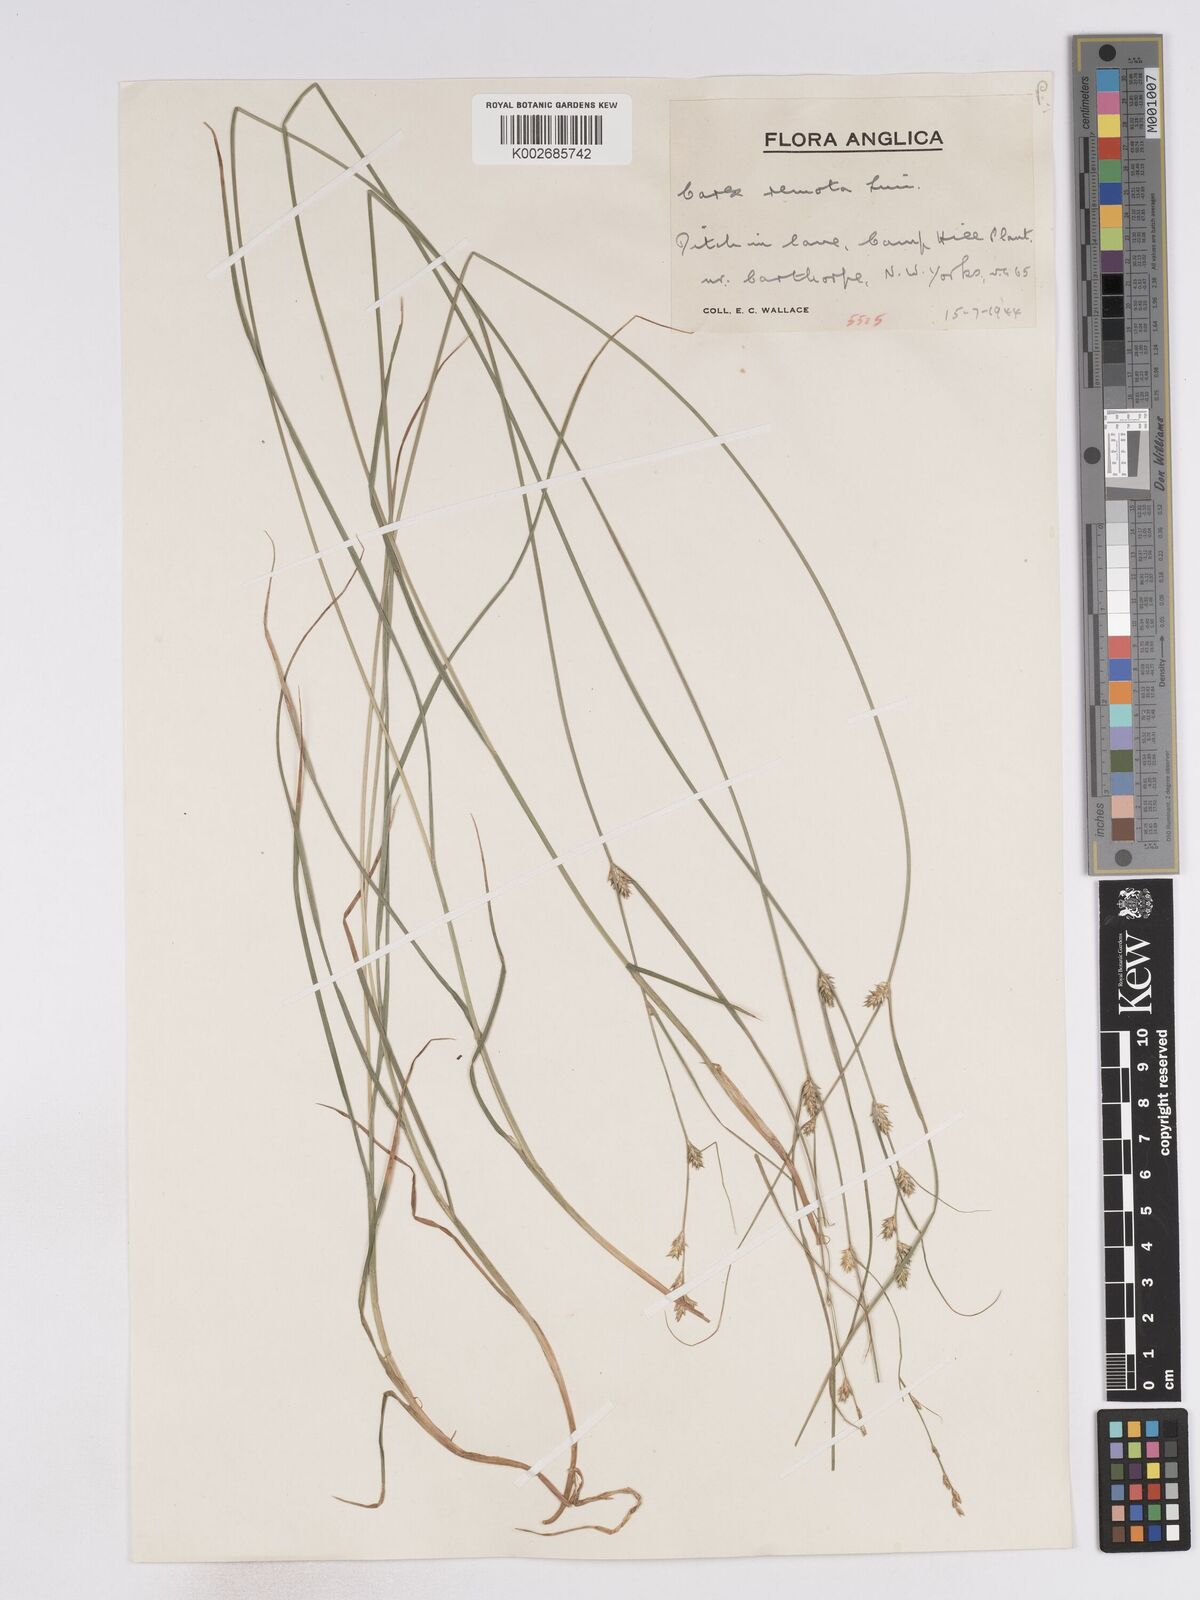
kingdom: Plantae
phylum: Tracheophyta
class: Liliopsida
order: Poales
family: Cyperaceae
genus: Carex
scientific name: Carex remota
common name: Remote sedge
